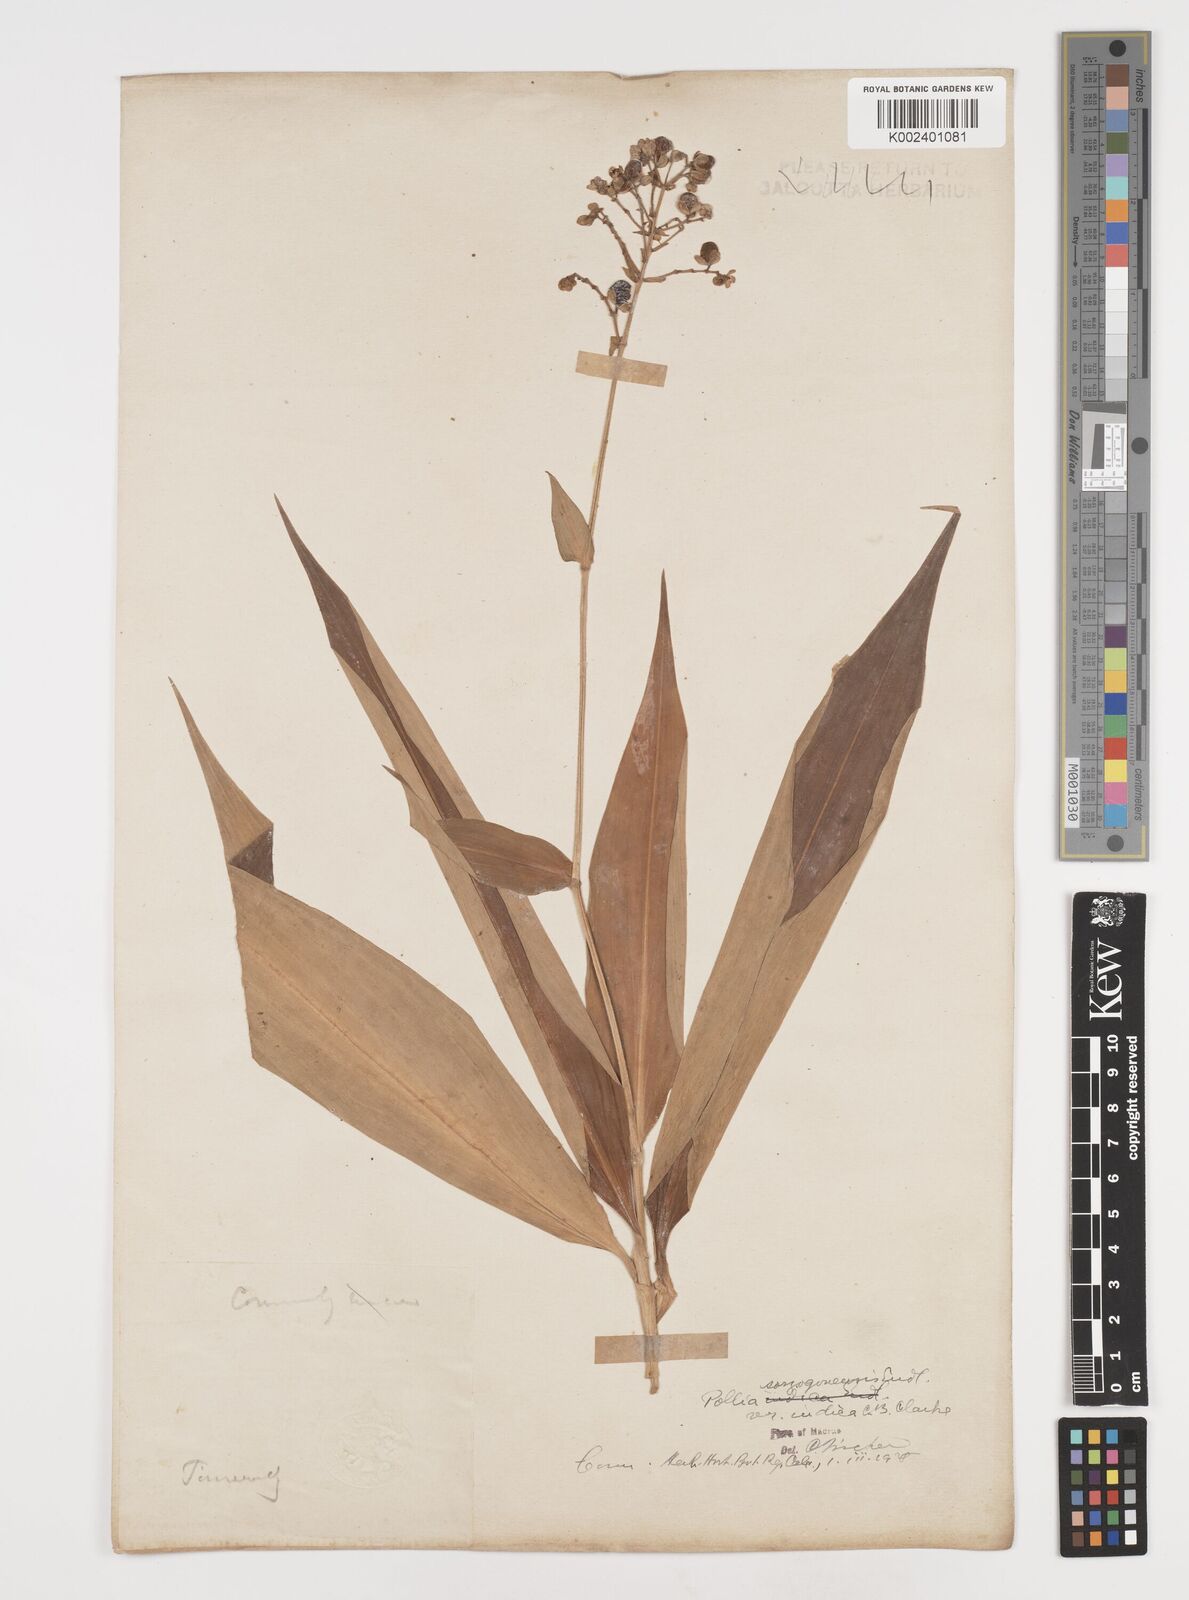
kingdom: Plantae
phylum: Tracheophyta
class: Liliopsida
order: Commelinales
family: Commelinaceae
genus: Pollia
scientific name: Pollia secundiflora
